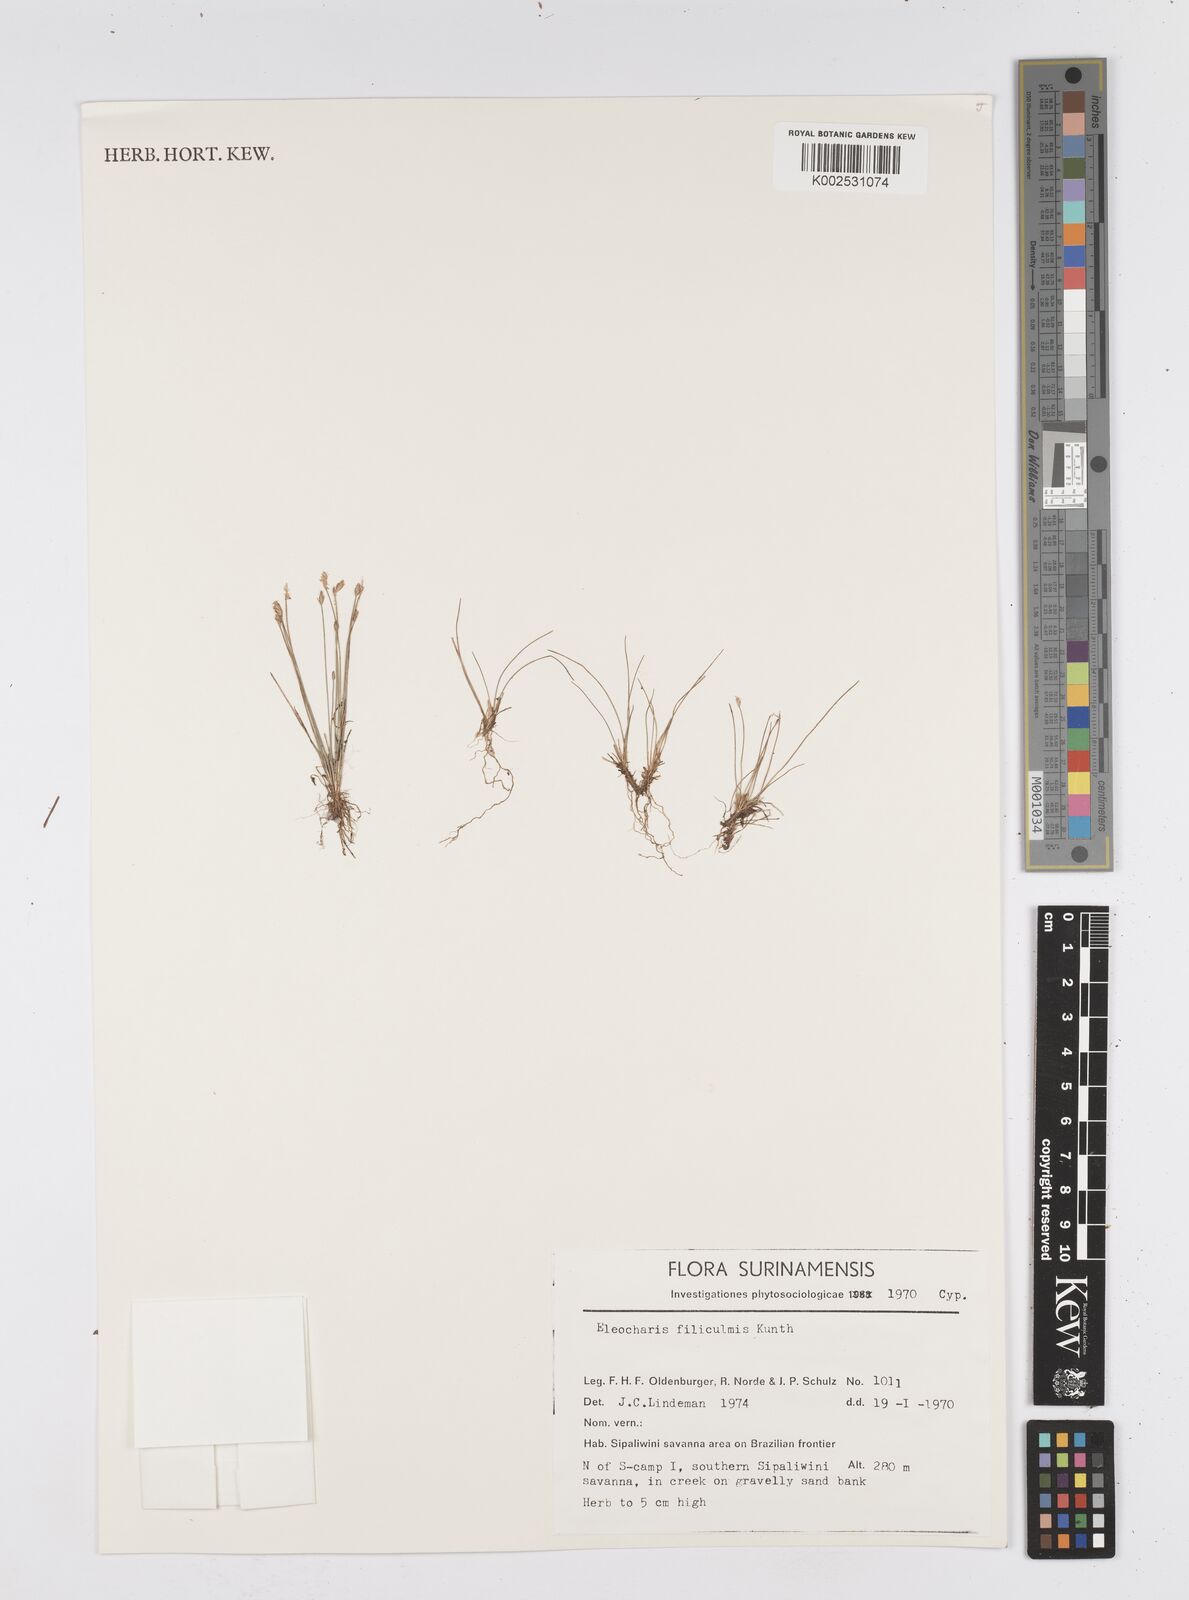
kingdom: Plantae
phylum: Tracheophyta
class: Liliopsida
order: Poales
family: Cyperaceae
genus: Eleocharis
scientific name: Eleocharis filiculmis
